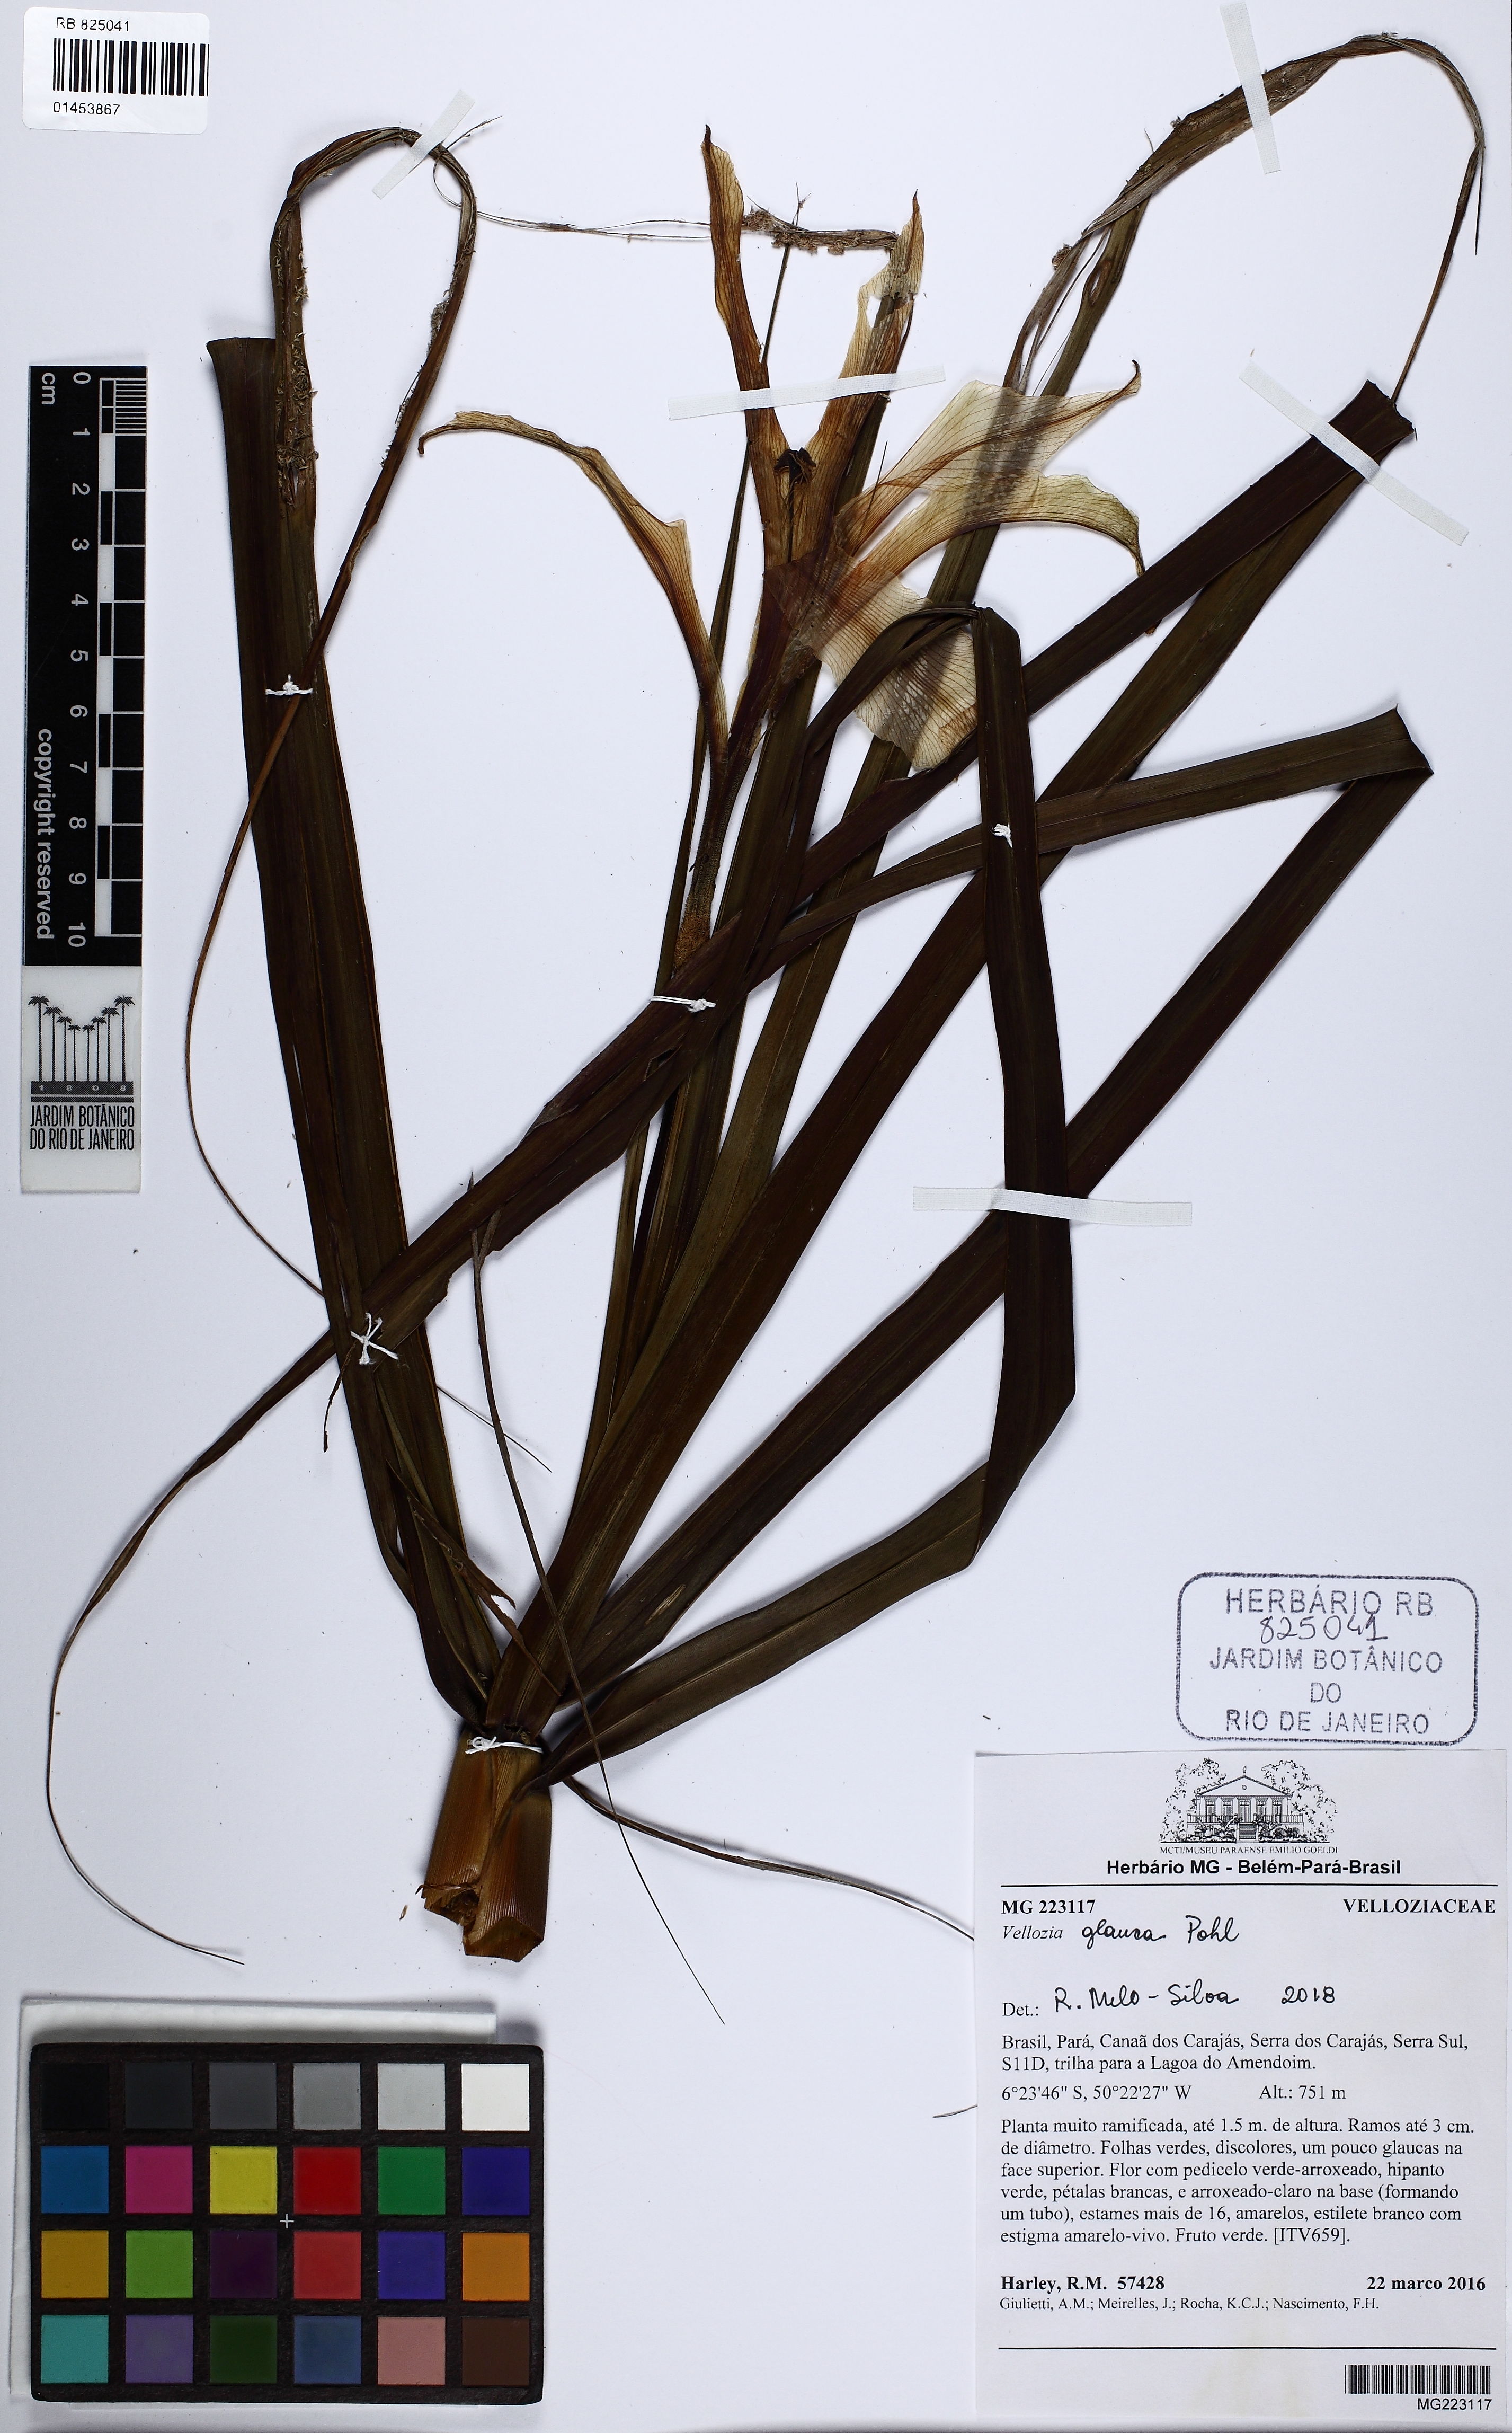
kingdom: Plantae
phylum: Tracheophyta
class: Liliopsida
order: Pandanales
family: Velloziaceae
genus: Vellozia
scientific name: Vellozia glauca
